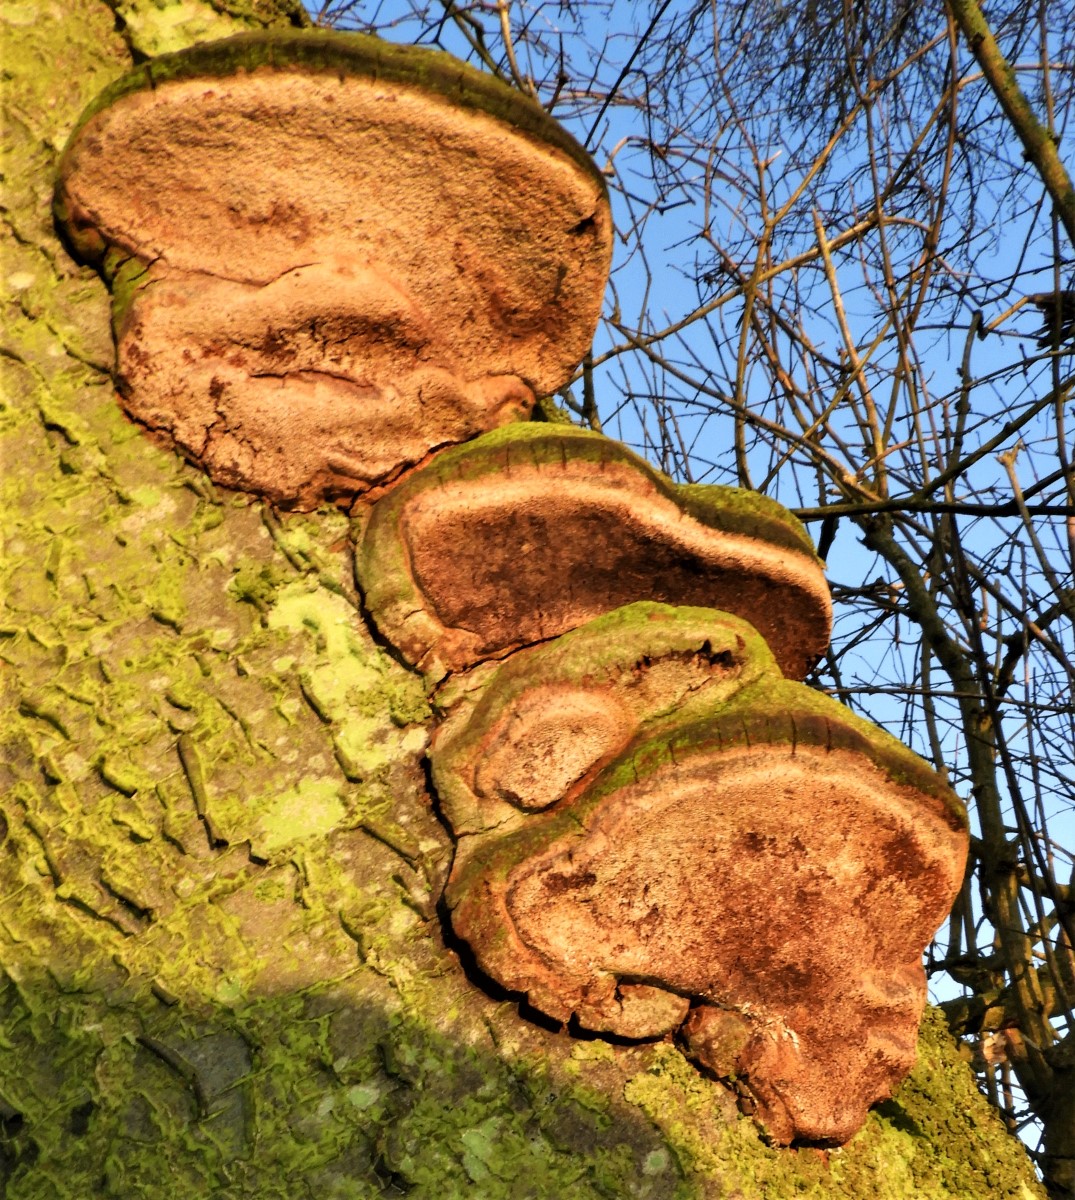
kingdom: Fungi
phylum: Basidiomycota
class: Agaricomycetes
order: Hymenochaetales
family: Hymenochaetaceae
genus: Phellinus
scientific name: Phellinus pomaceus
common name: blomme-ildporesvamp
